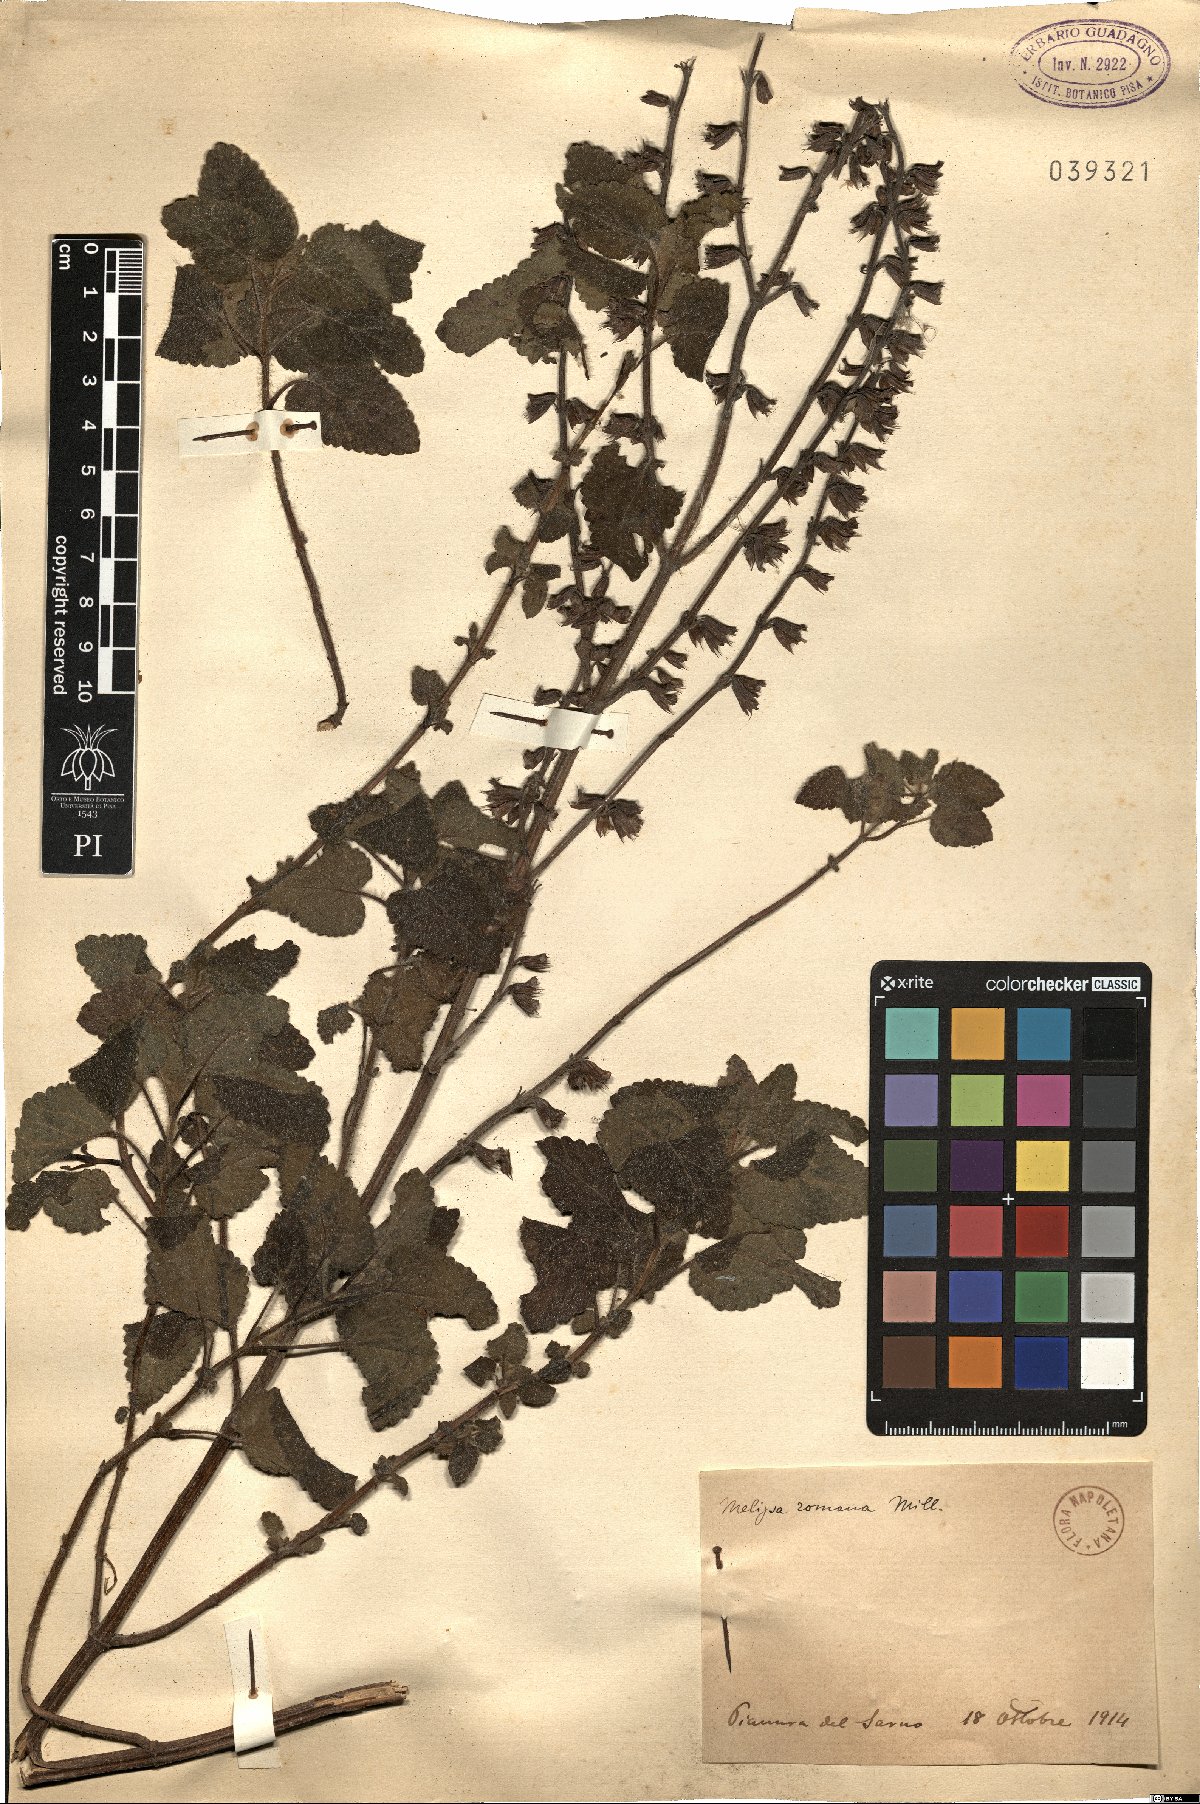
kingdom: Plantae
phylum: Tracheophyta
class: Magnoliopsida
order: Lamiales
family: Lamiaceae
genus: Melissa
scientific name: Melissa officinalis
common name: Balm
